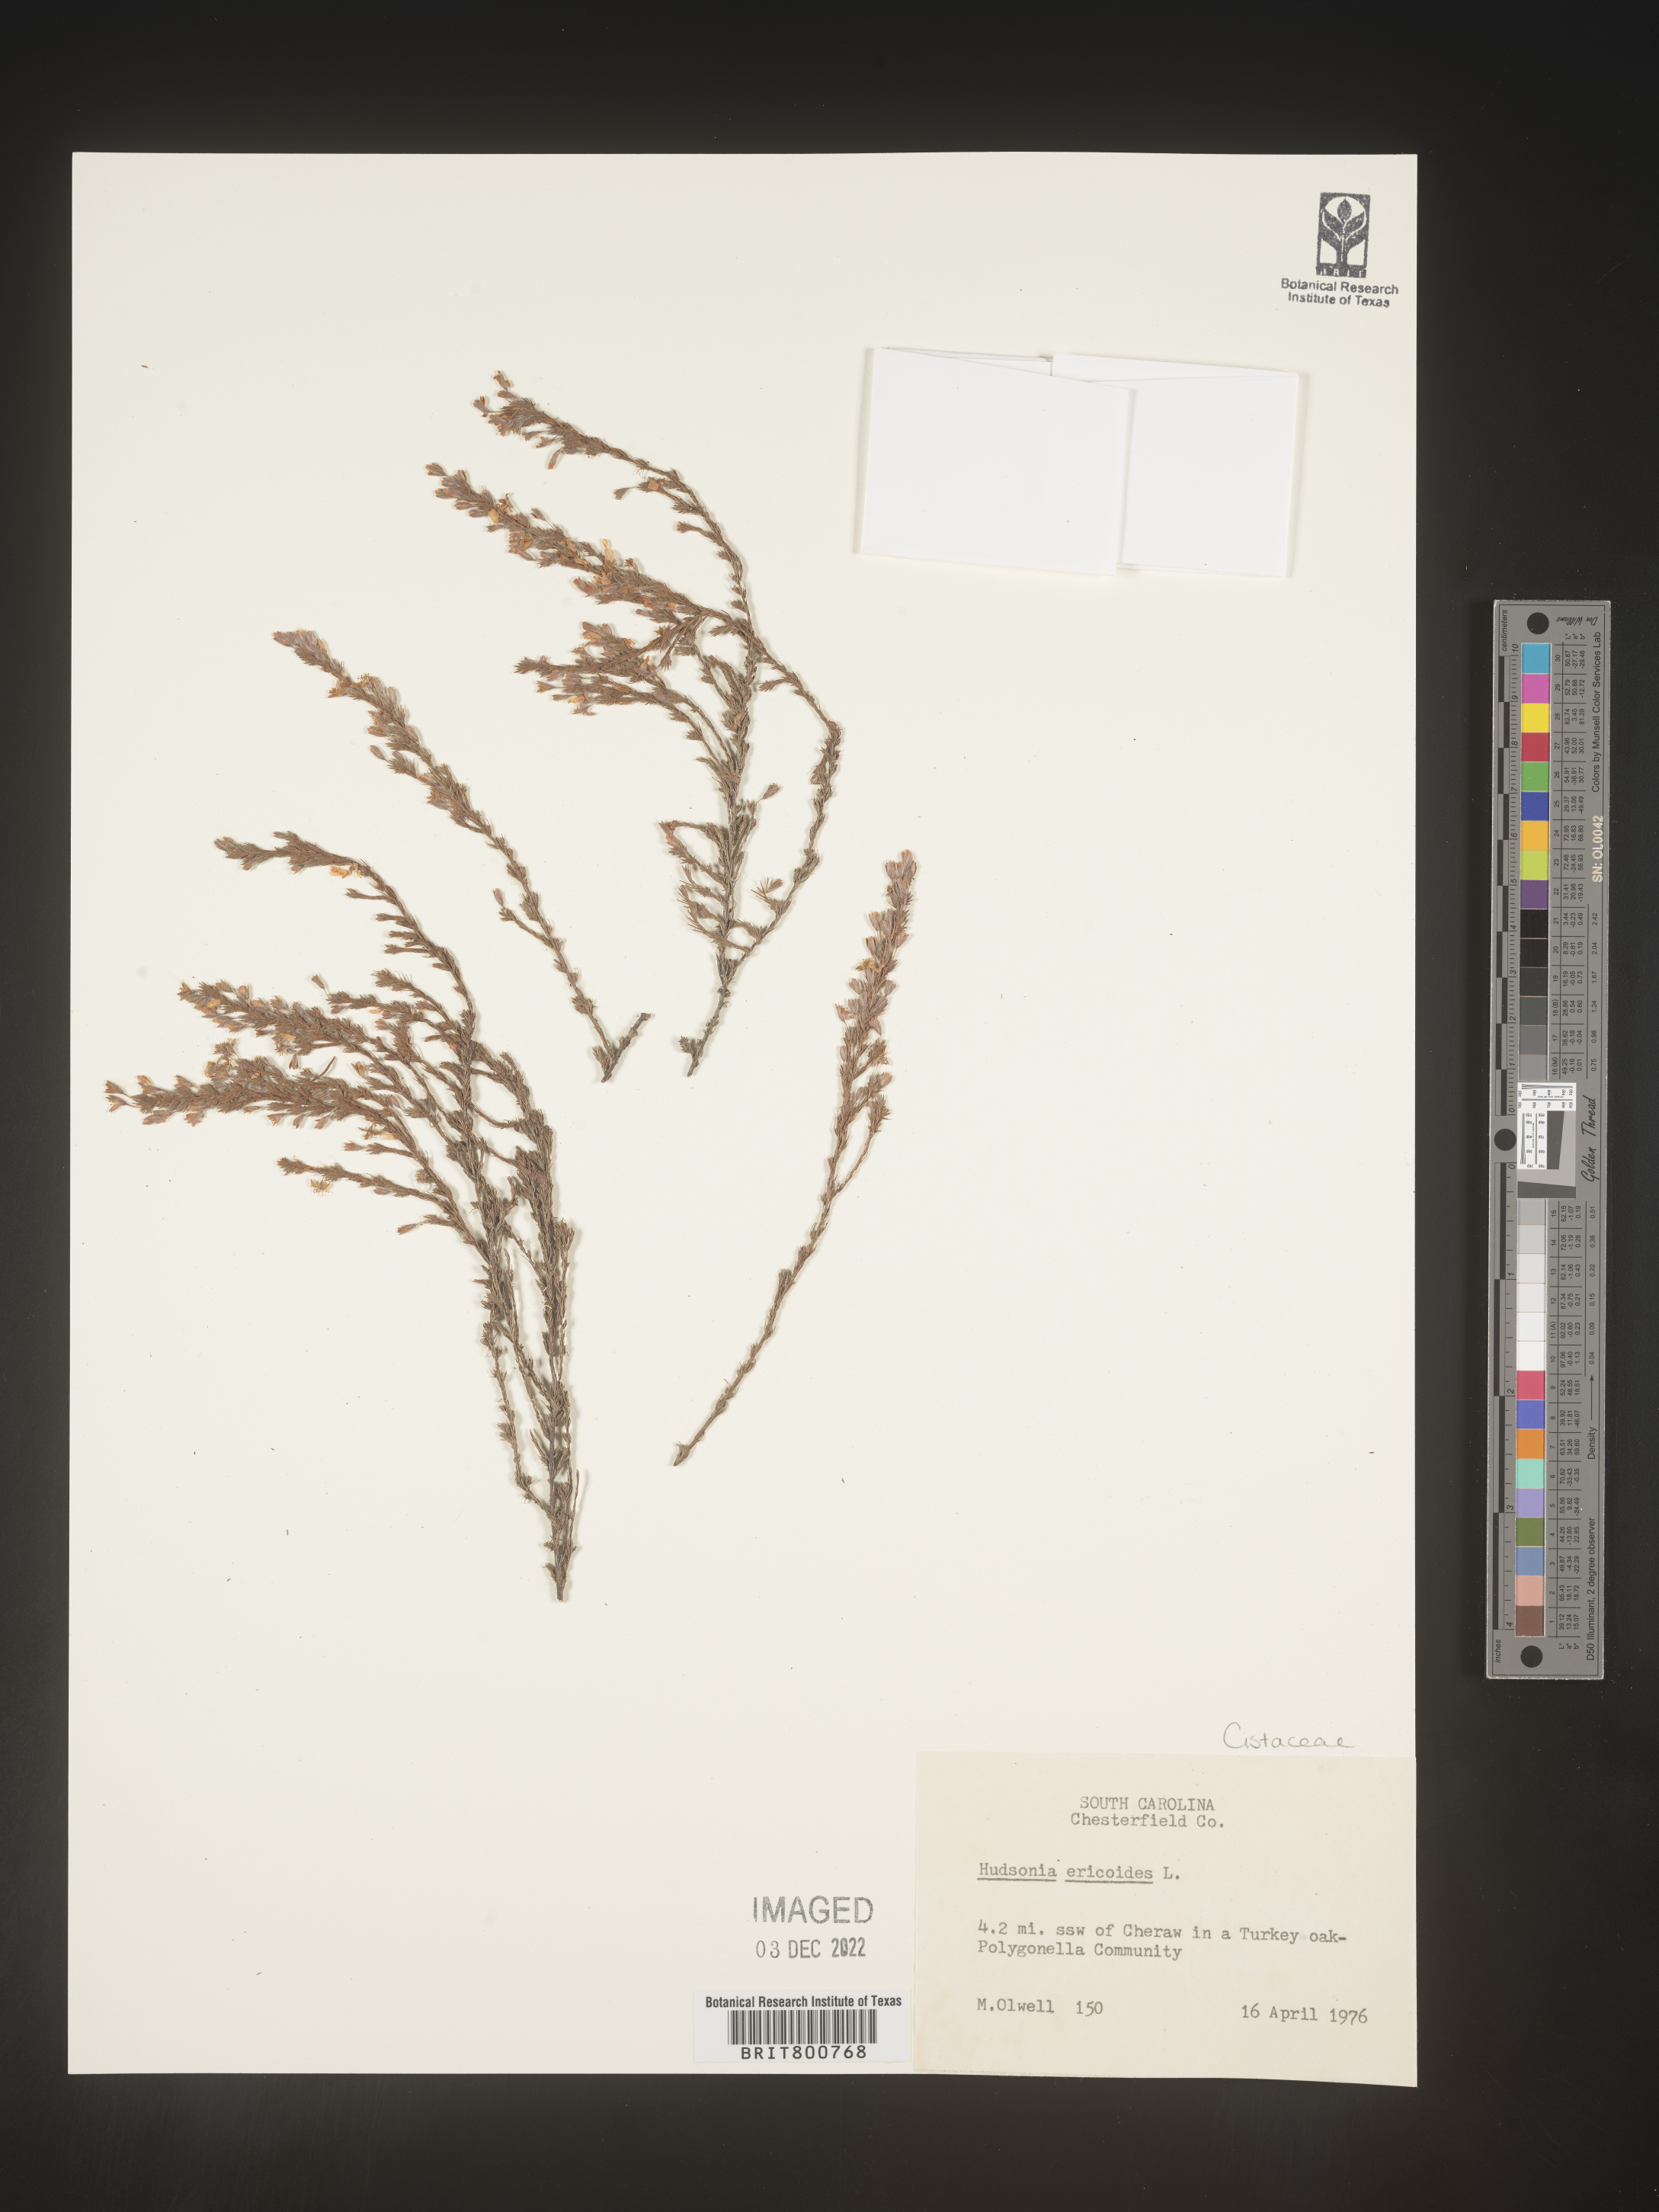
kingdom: Plantae
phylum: Tracheophyta
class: Magnoliopsida
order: Malvales
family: Cistaceae
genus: Hudsonia
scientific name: Hudsonia ericoides
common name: Golden-heather
